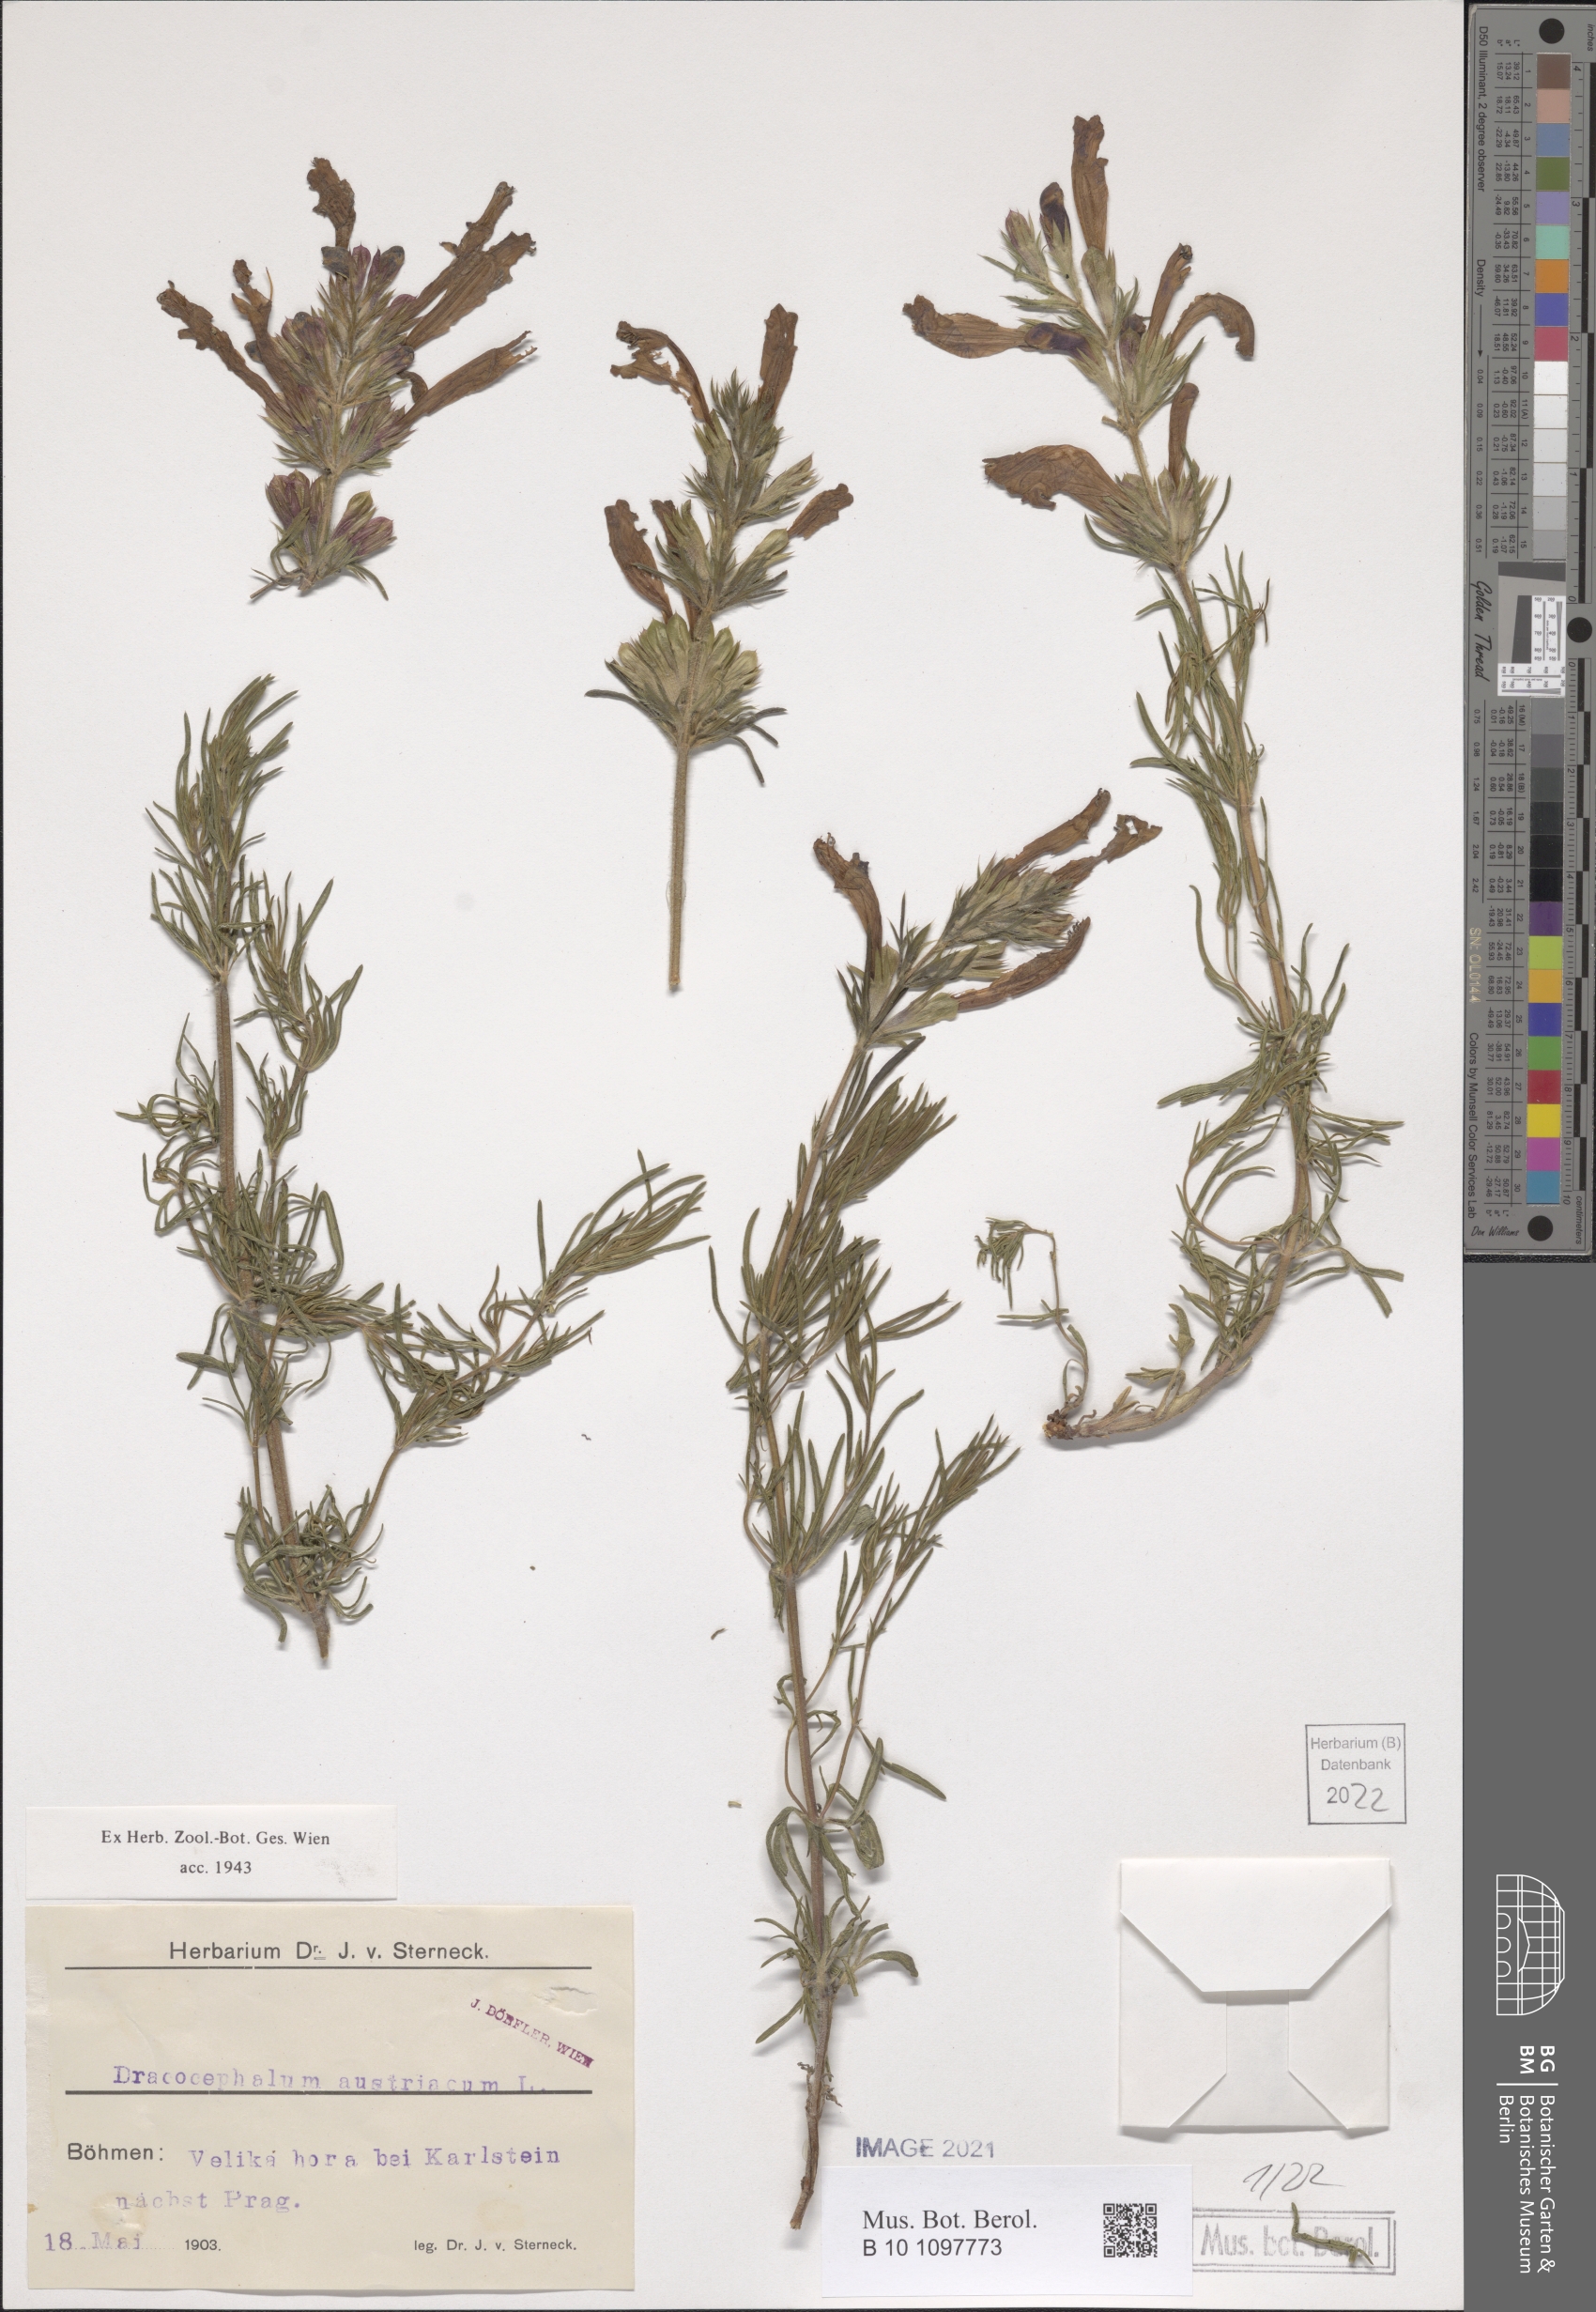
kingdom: Plantae
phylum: Tracheophyta
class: Magnoliopsida
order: Lamiales
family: Lamiaceae
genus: Dracocephalum
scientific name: Dracocephalum austriacum
